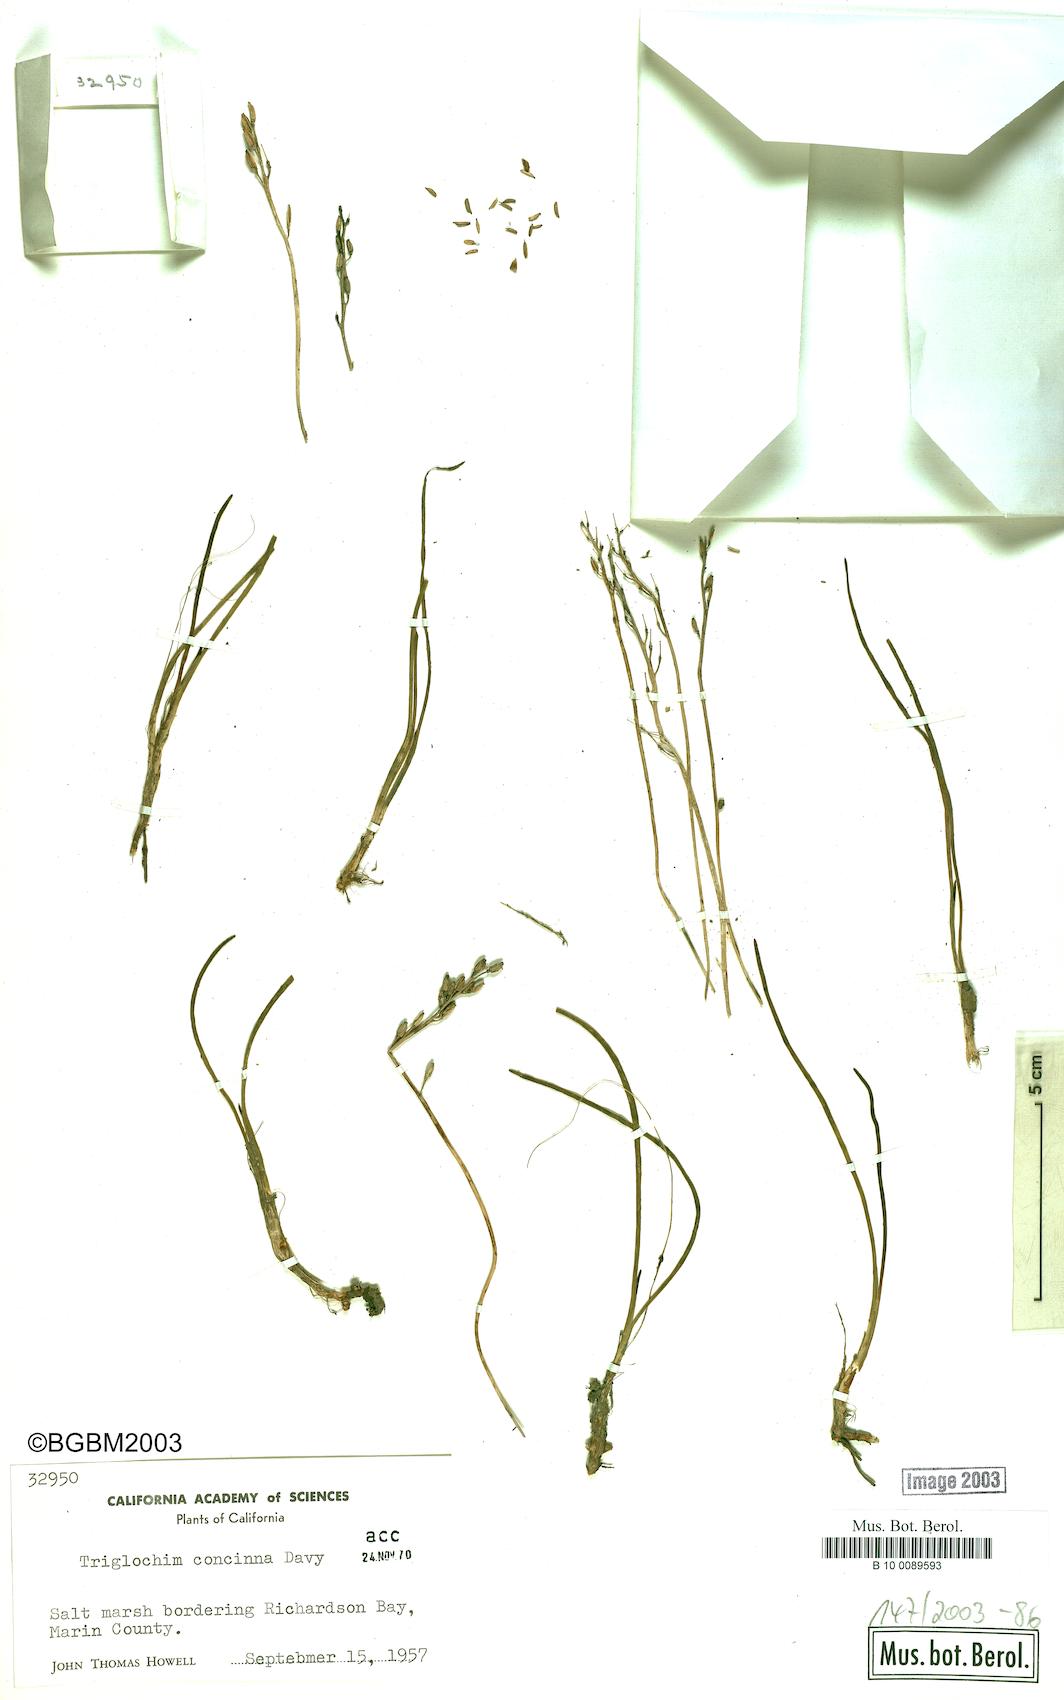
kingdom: Plantae
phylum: Tracheophyta
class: Liliopsida
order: Alismatales
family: Juncaginaceae
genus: Triglochin
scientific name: Triglochin maritima
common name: Sea arrowgrass
